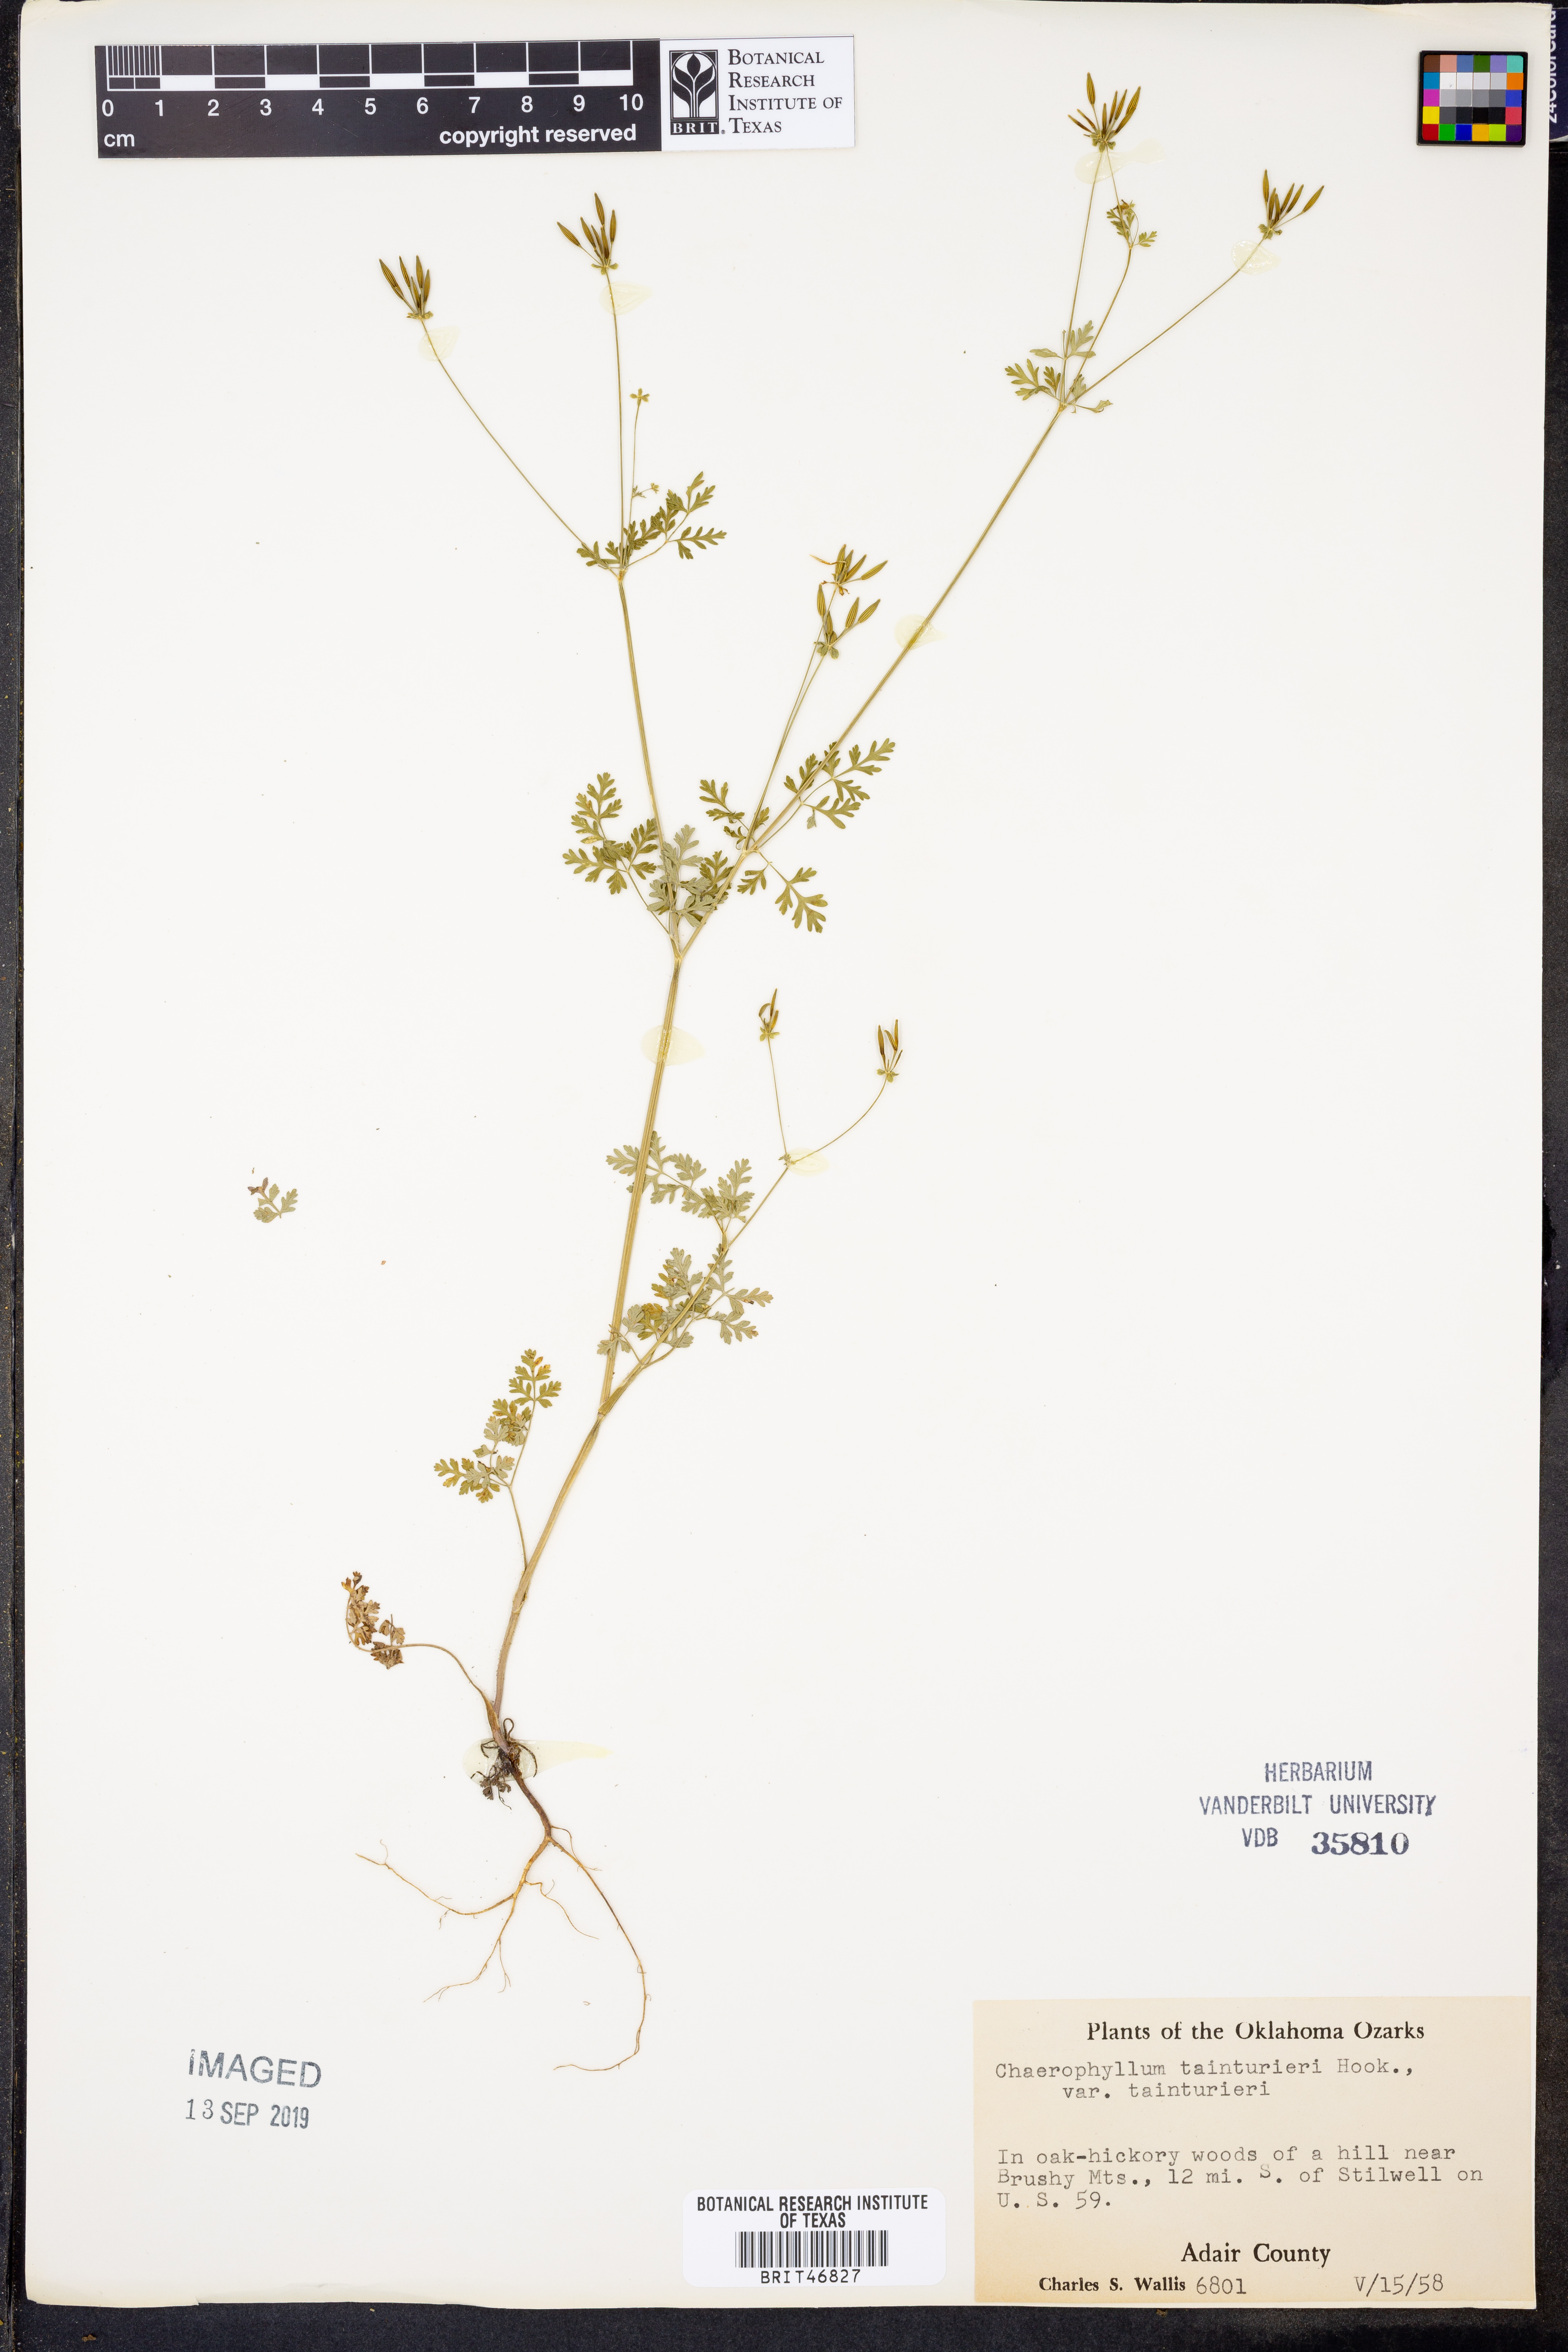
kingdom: Plantae
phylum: Tracheophyta
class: Magnoliopsida
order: Apiales
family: Apiaceae
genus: Chaerophyllum
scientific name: Chaerophyllum tainturieri
